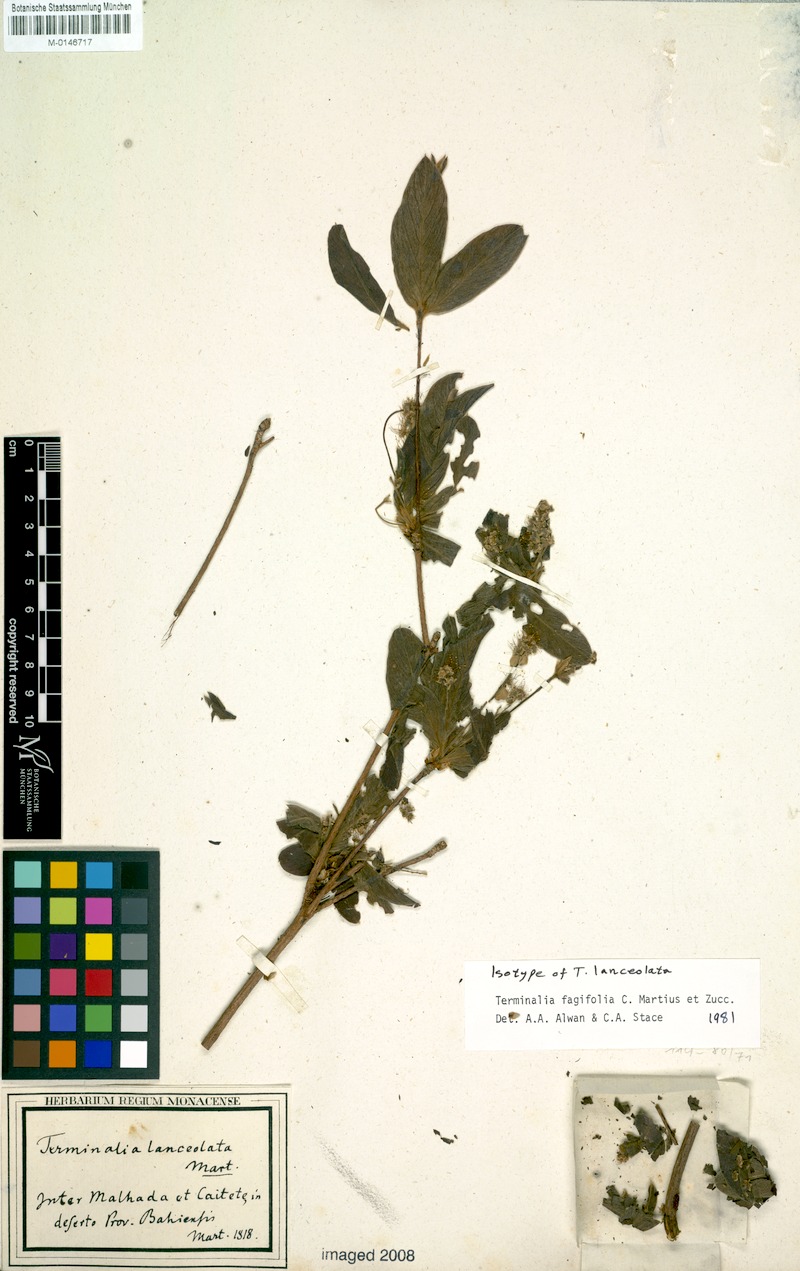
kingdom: Plantae
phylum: Tracheophyta
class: Magnoliopsida
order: Myrtales
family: Combretaceae
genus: Terminalia
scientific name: Terminalia fagifolia
